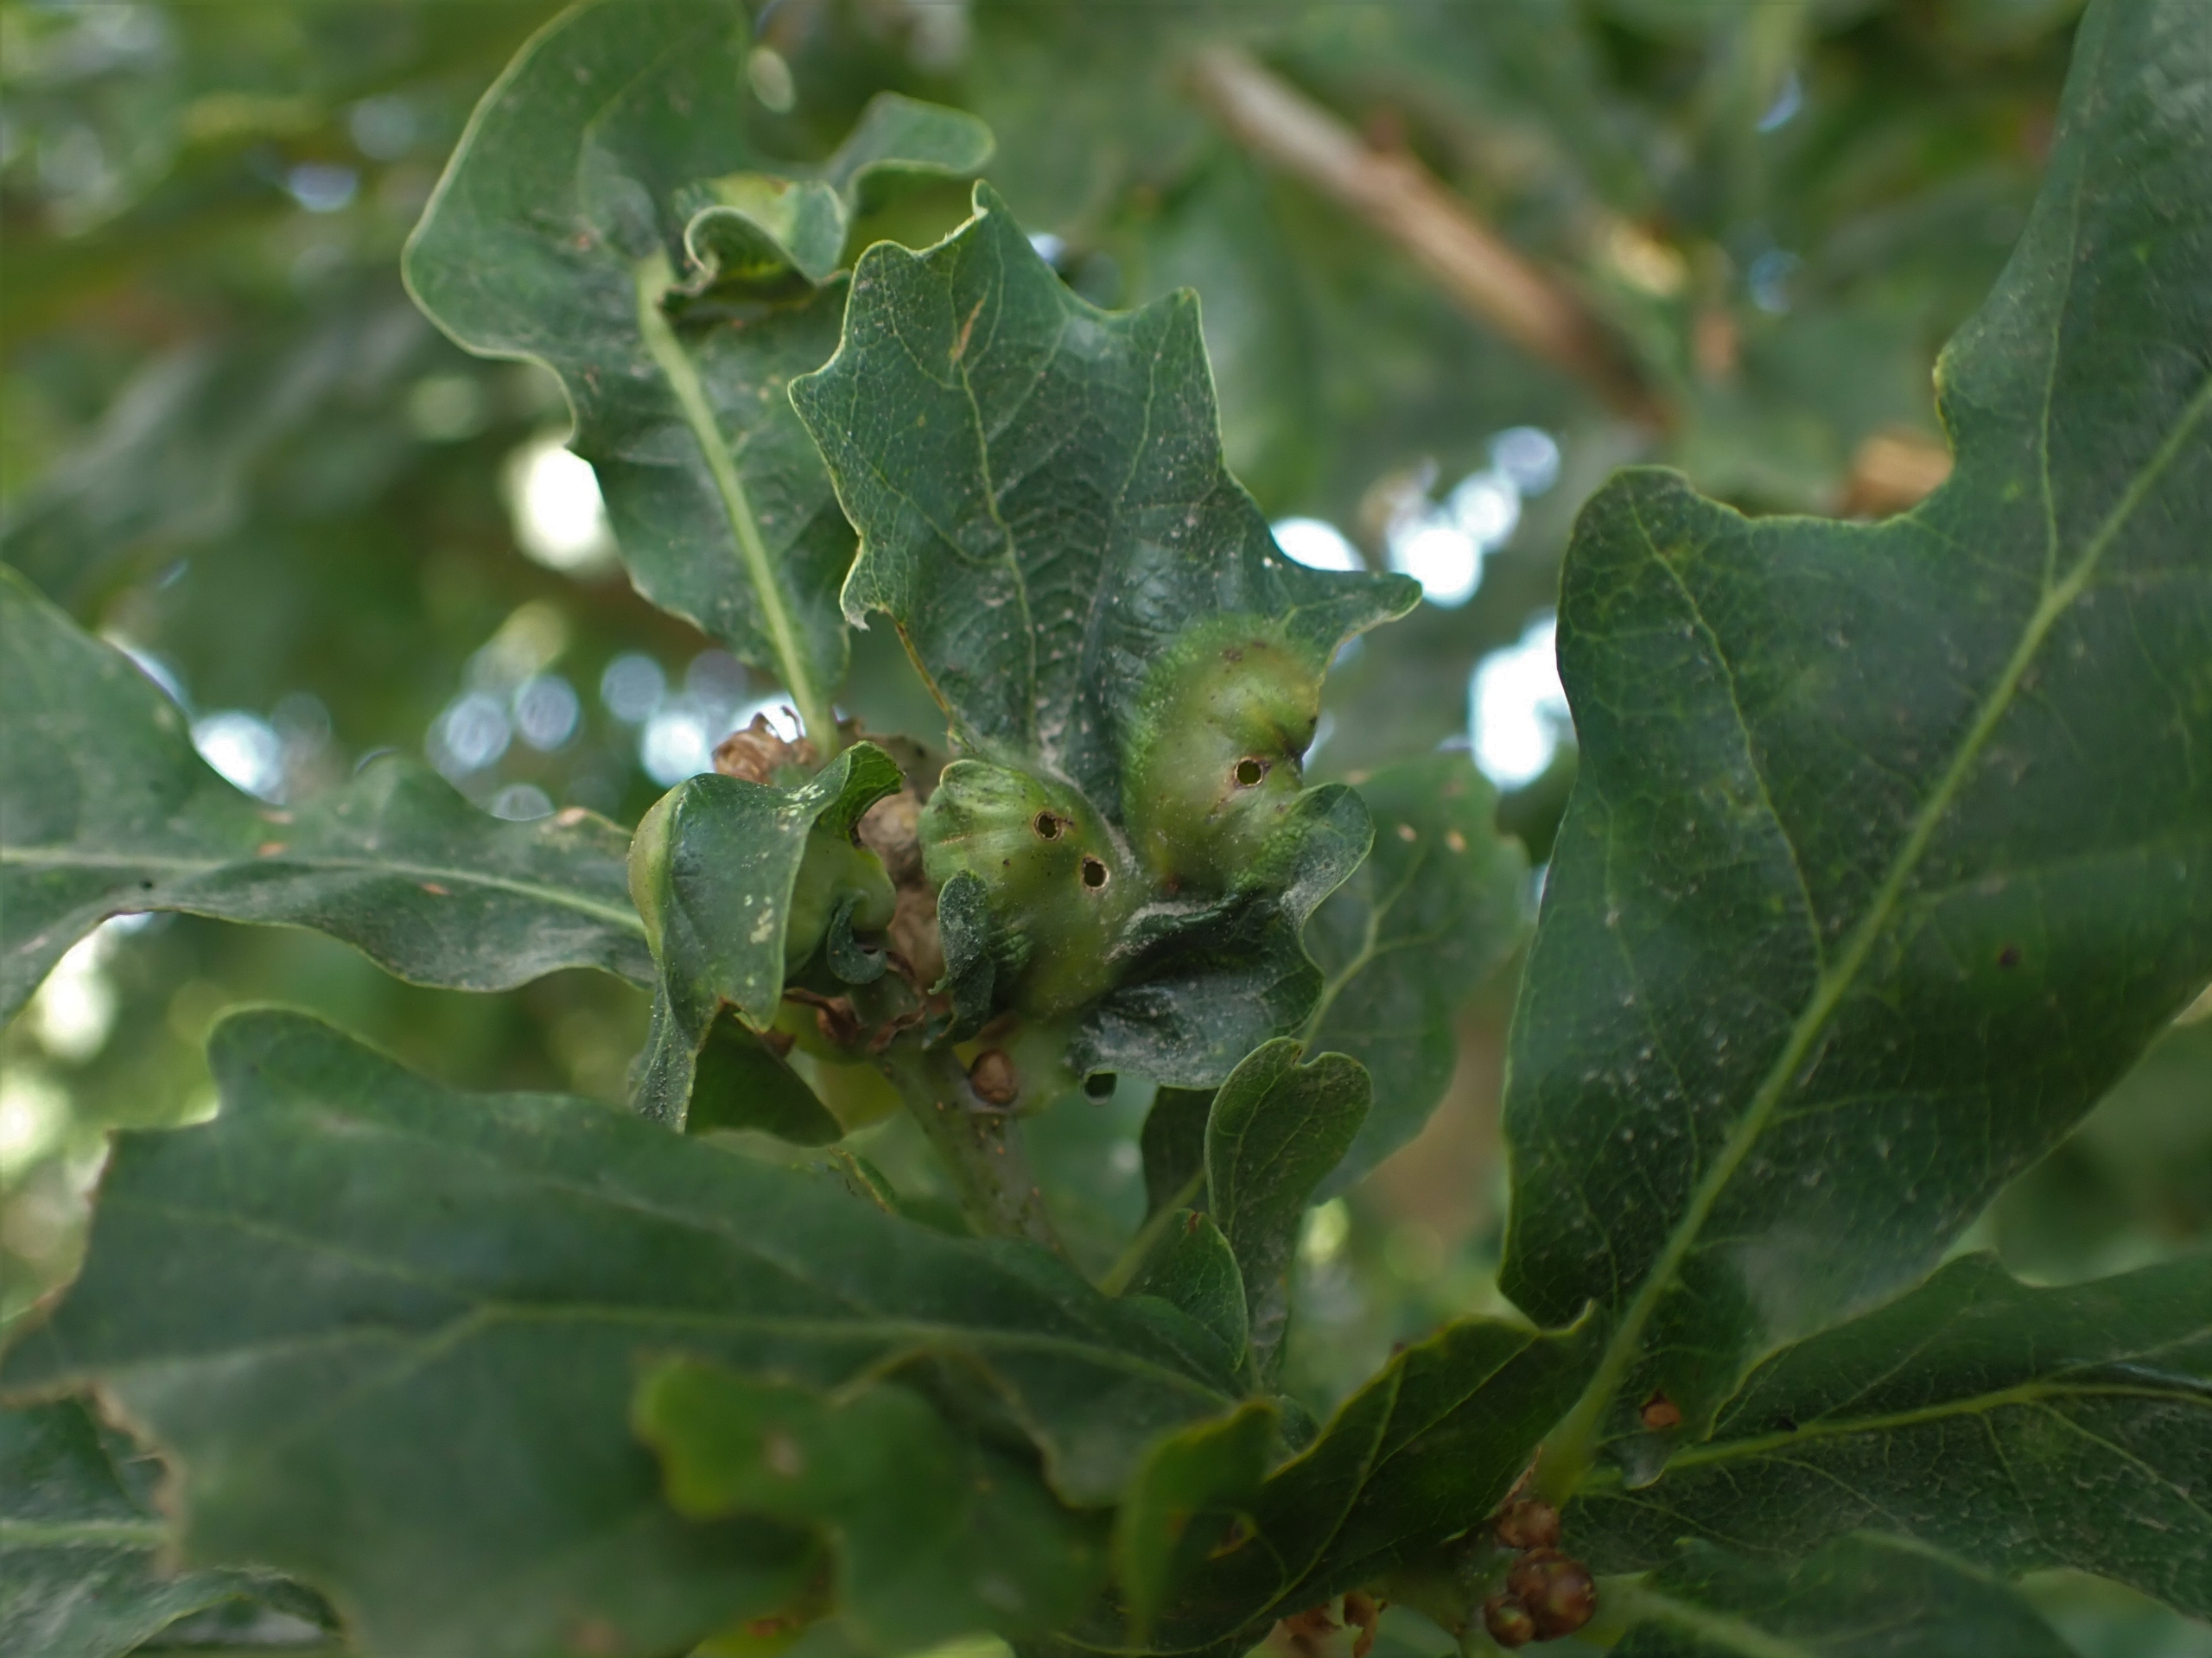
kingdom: Animalia
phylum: Arthropoda
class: Insecta
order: Hymenoptera
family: Cynipidae
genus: Andricus
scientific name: Andricus curvator
